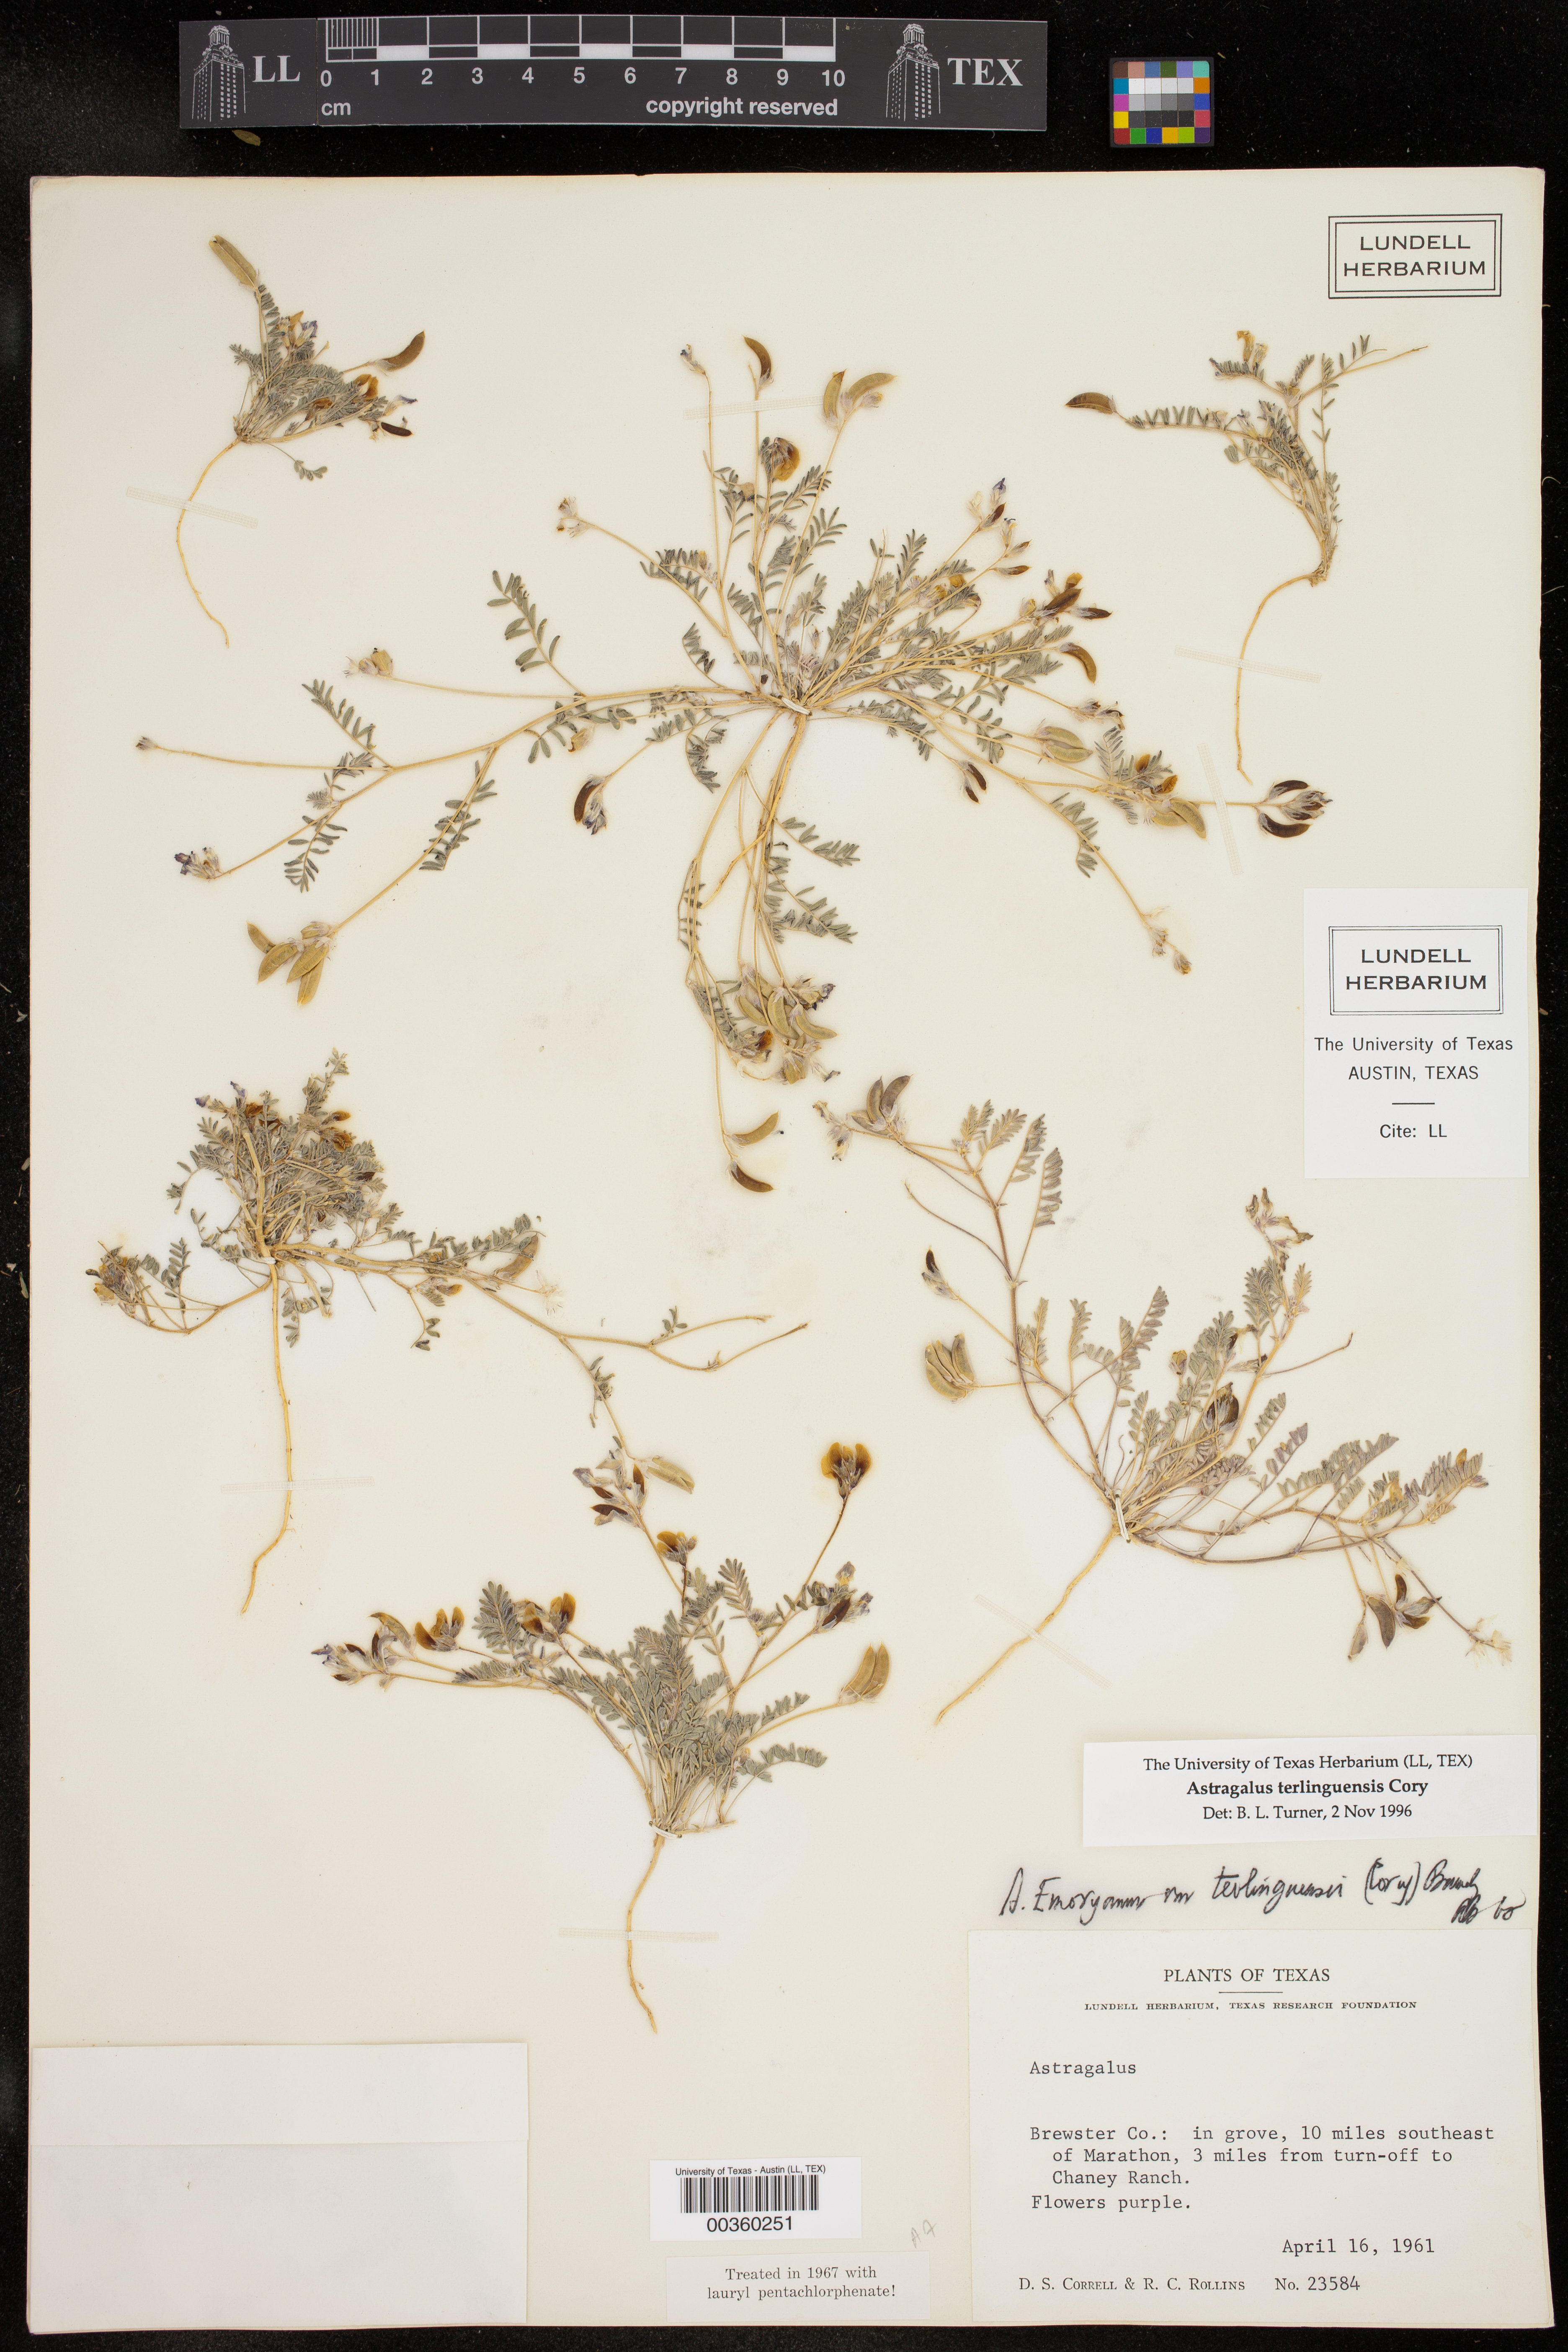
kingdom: Plantae
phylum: Tracheophyta
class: Magnoliopsida
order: Fabales
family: Fabaceae
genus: Astragalus
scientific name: Astragalus emoryanus
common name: Emory's milk-vetch
